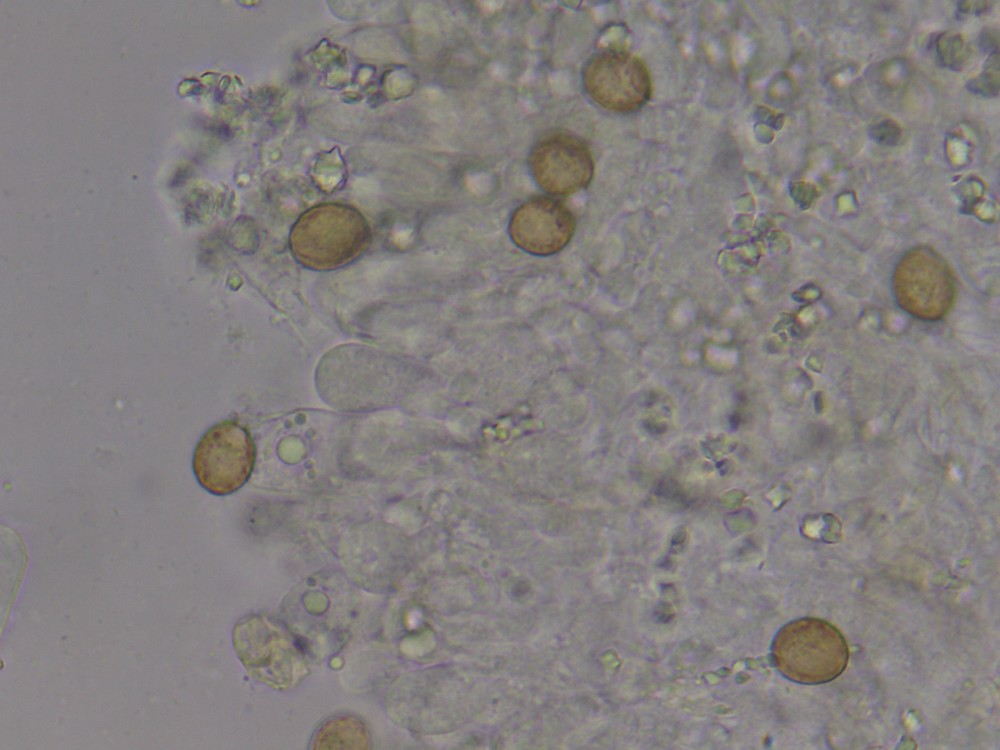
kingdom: Fungi
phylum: Basidiomycota
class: Agaricomycetes
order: Agaricales
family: Chromocyphellaceae
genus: Chromocyphella
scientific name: Chromocyphella muscicola
